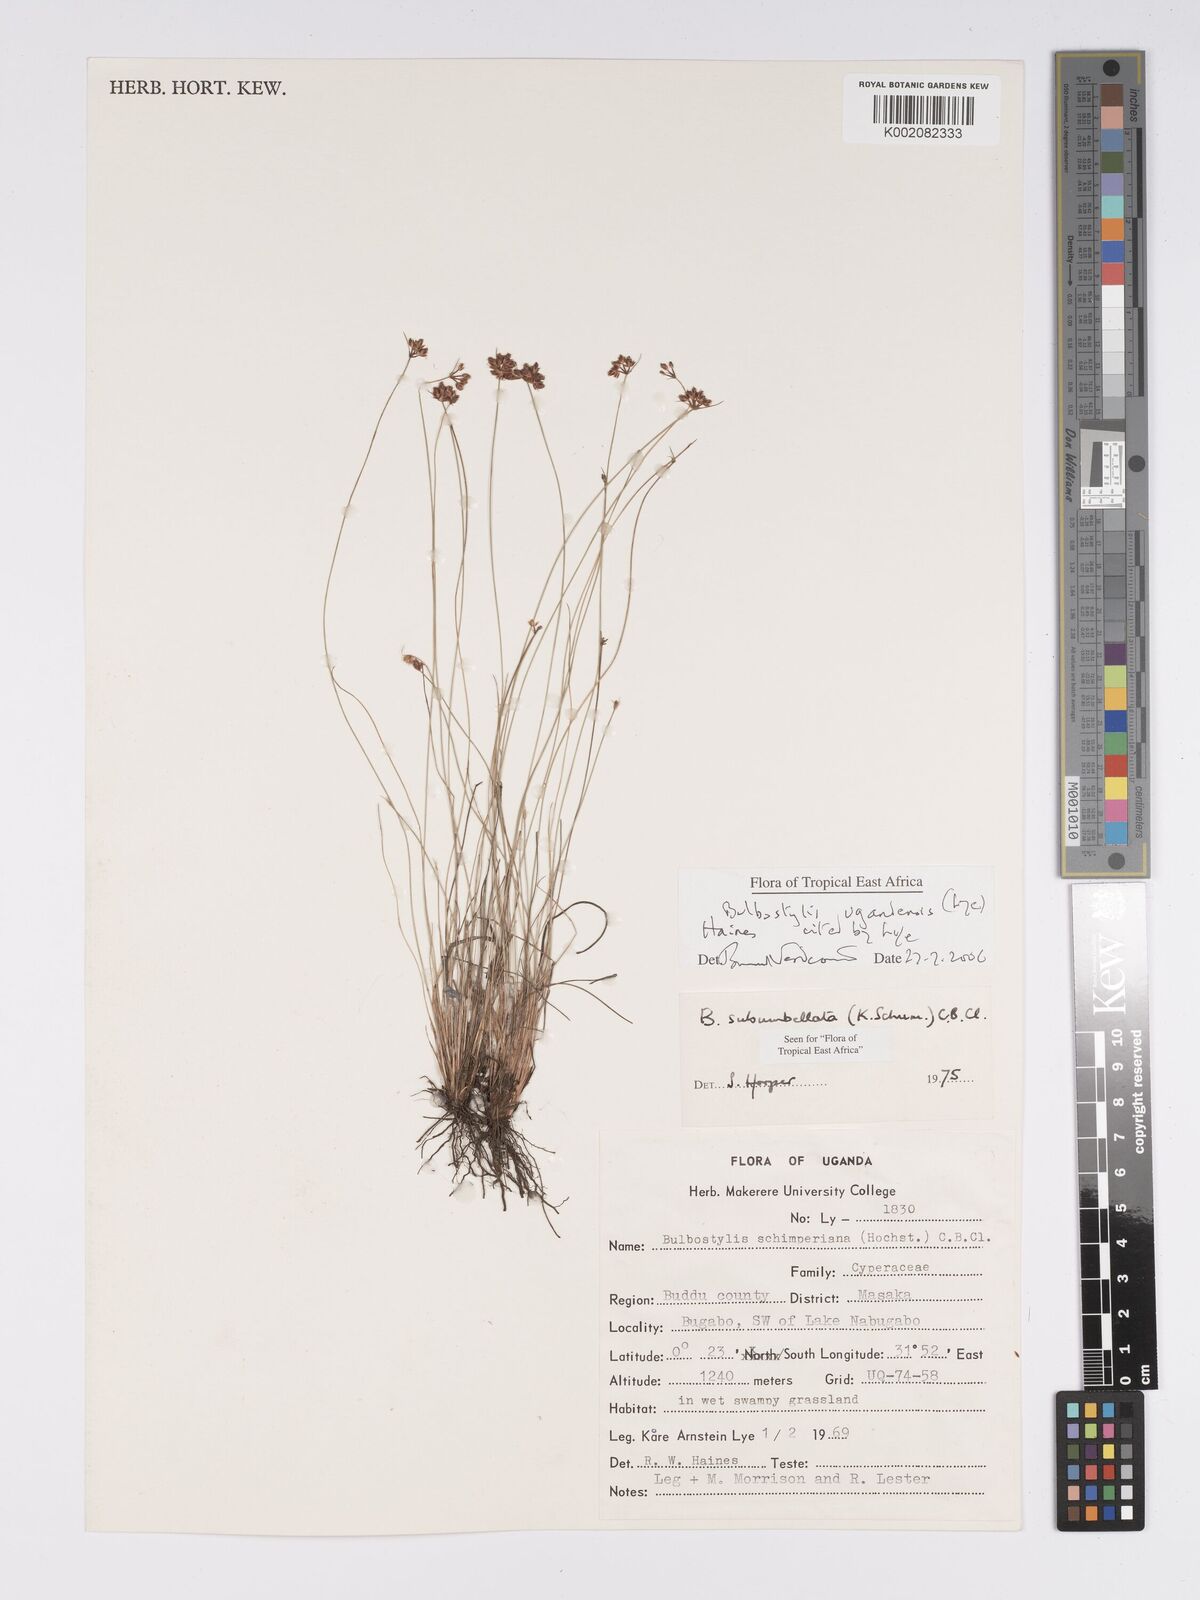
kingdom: Plantae
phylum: Tracheophyta
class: Liliopsida
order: Poales
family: Cyperaceae
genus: Bulbostylis
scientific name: Bulbostylis ugandensis
